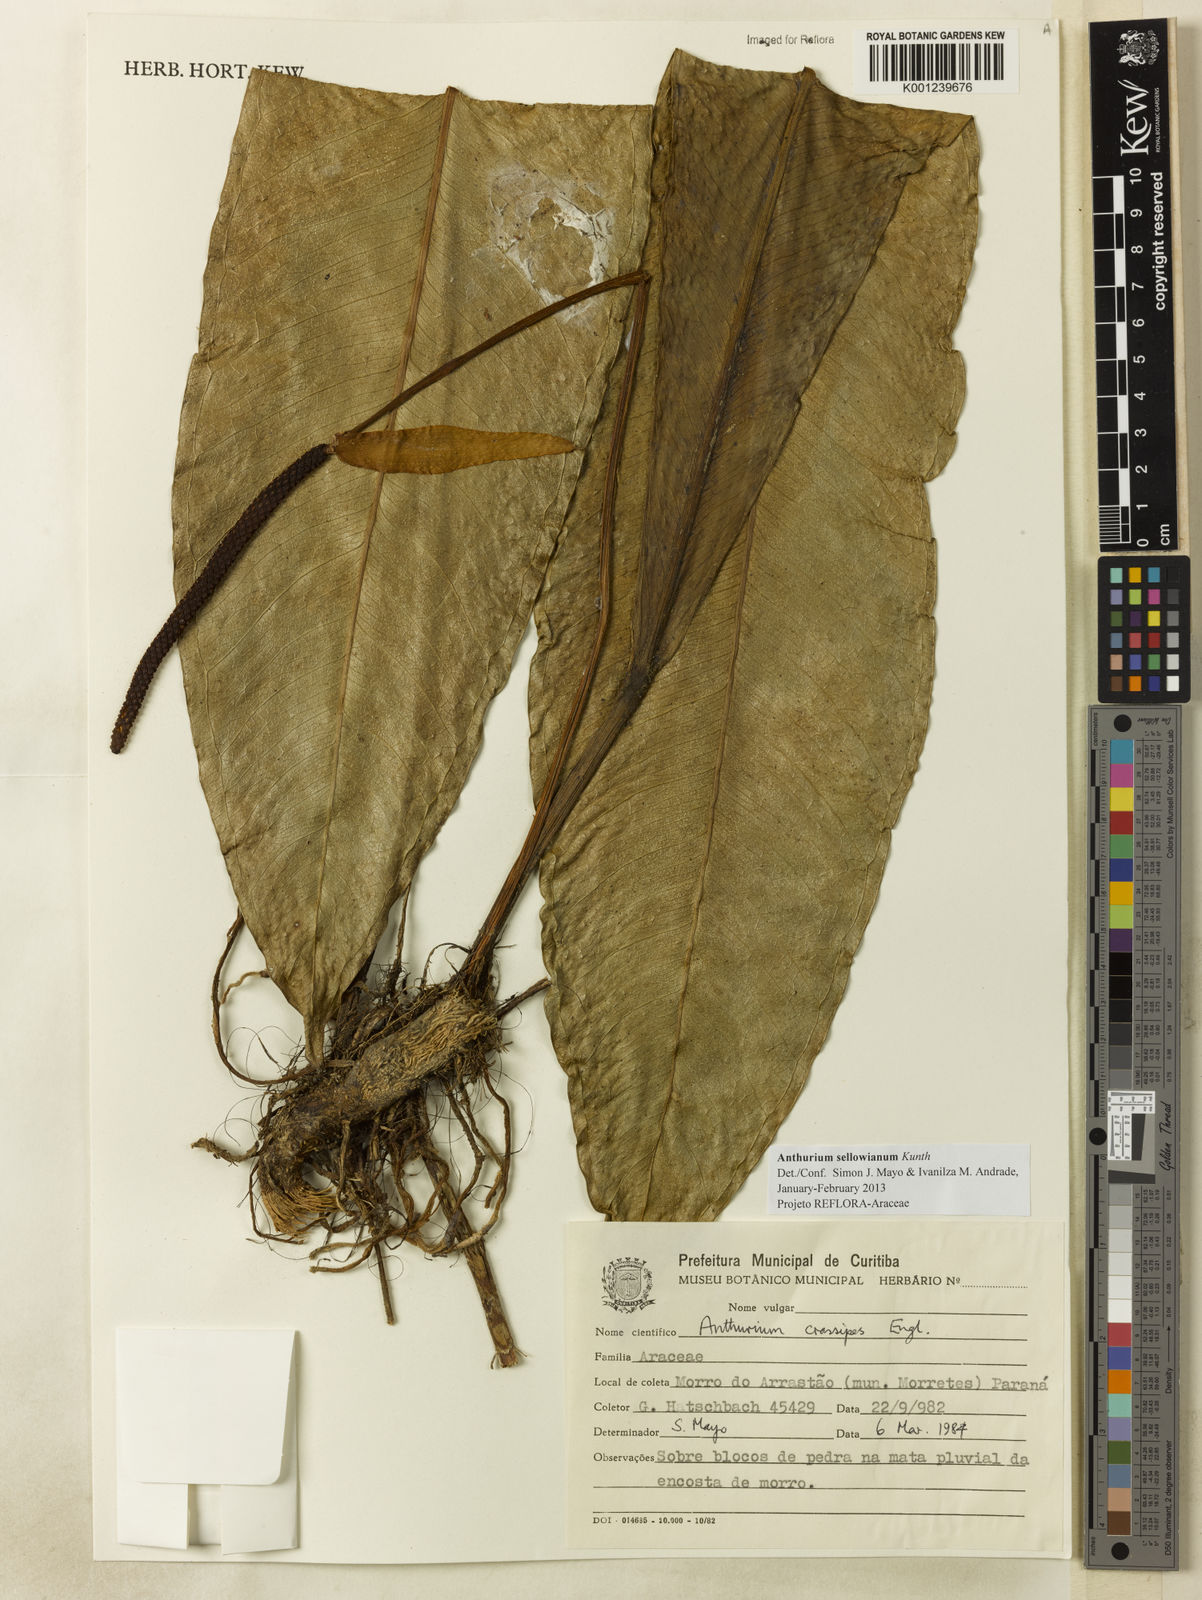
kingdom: Plantae
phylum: Tracheophyta
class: Liliopsida
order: Alismatales
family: Araceae
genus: Anthurium
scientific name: Anthurium sellowianum
